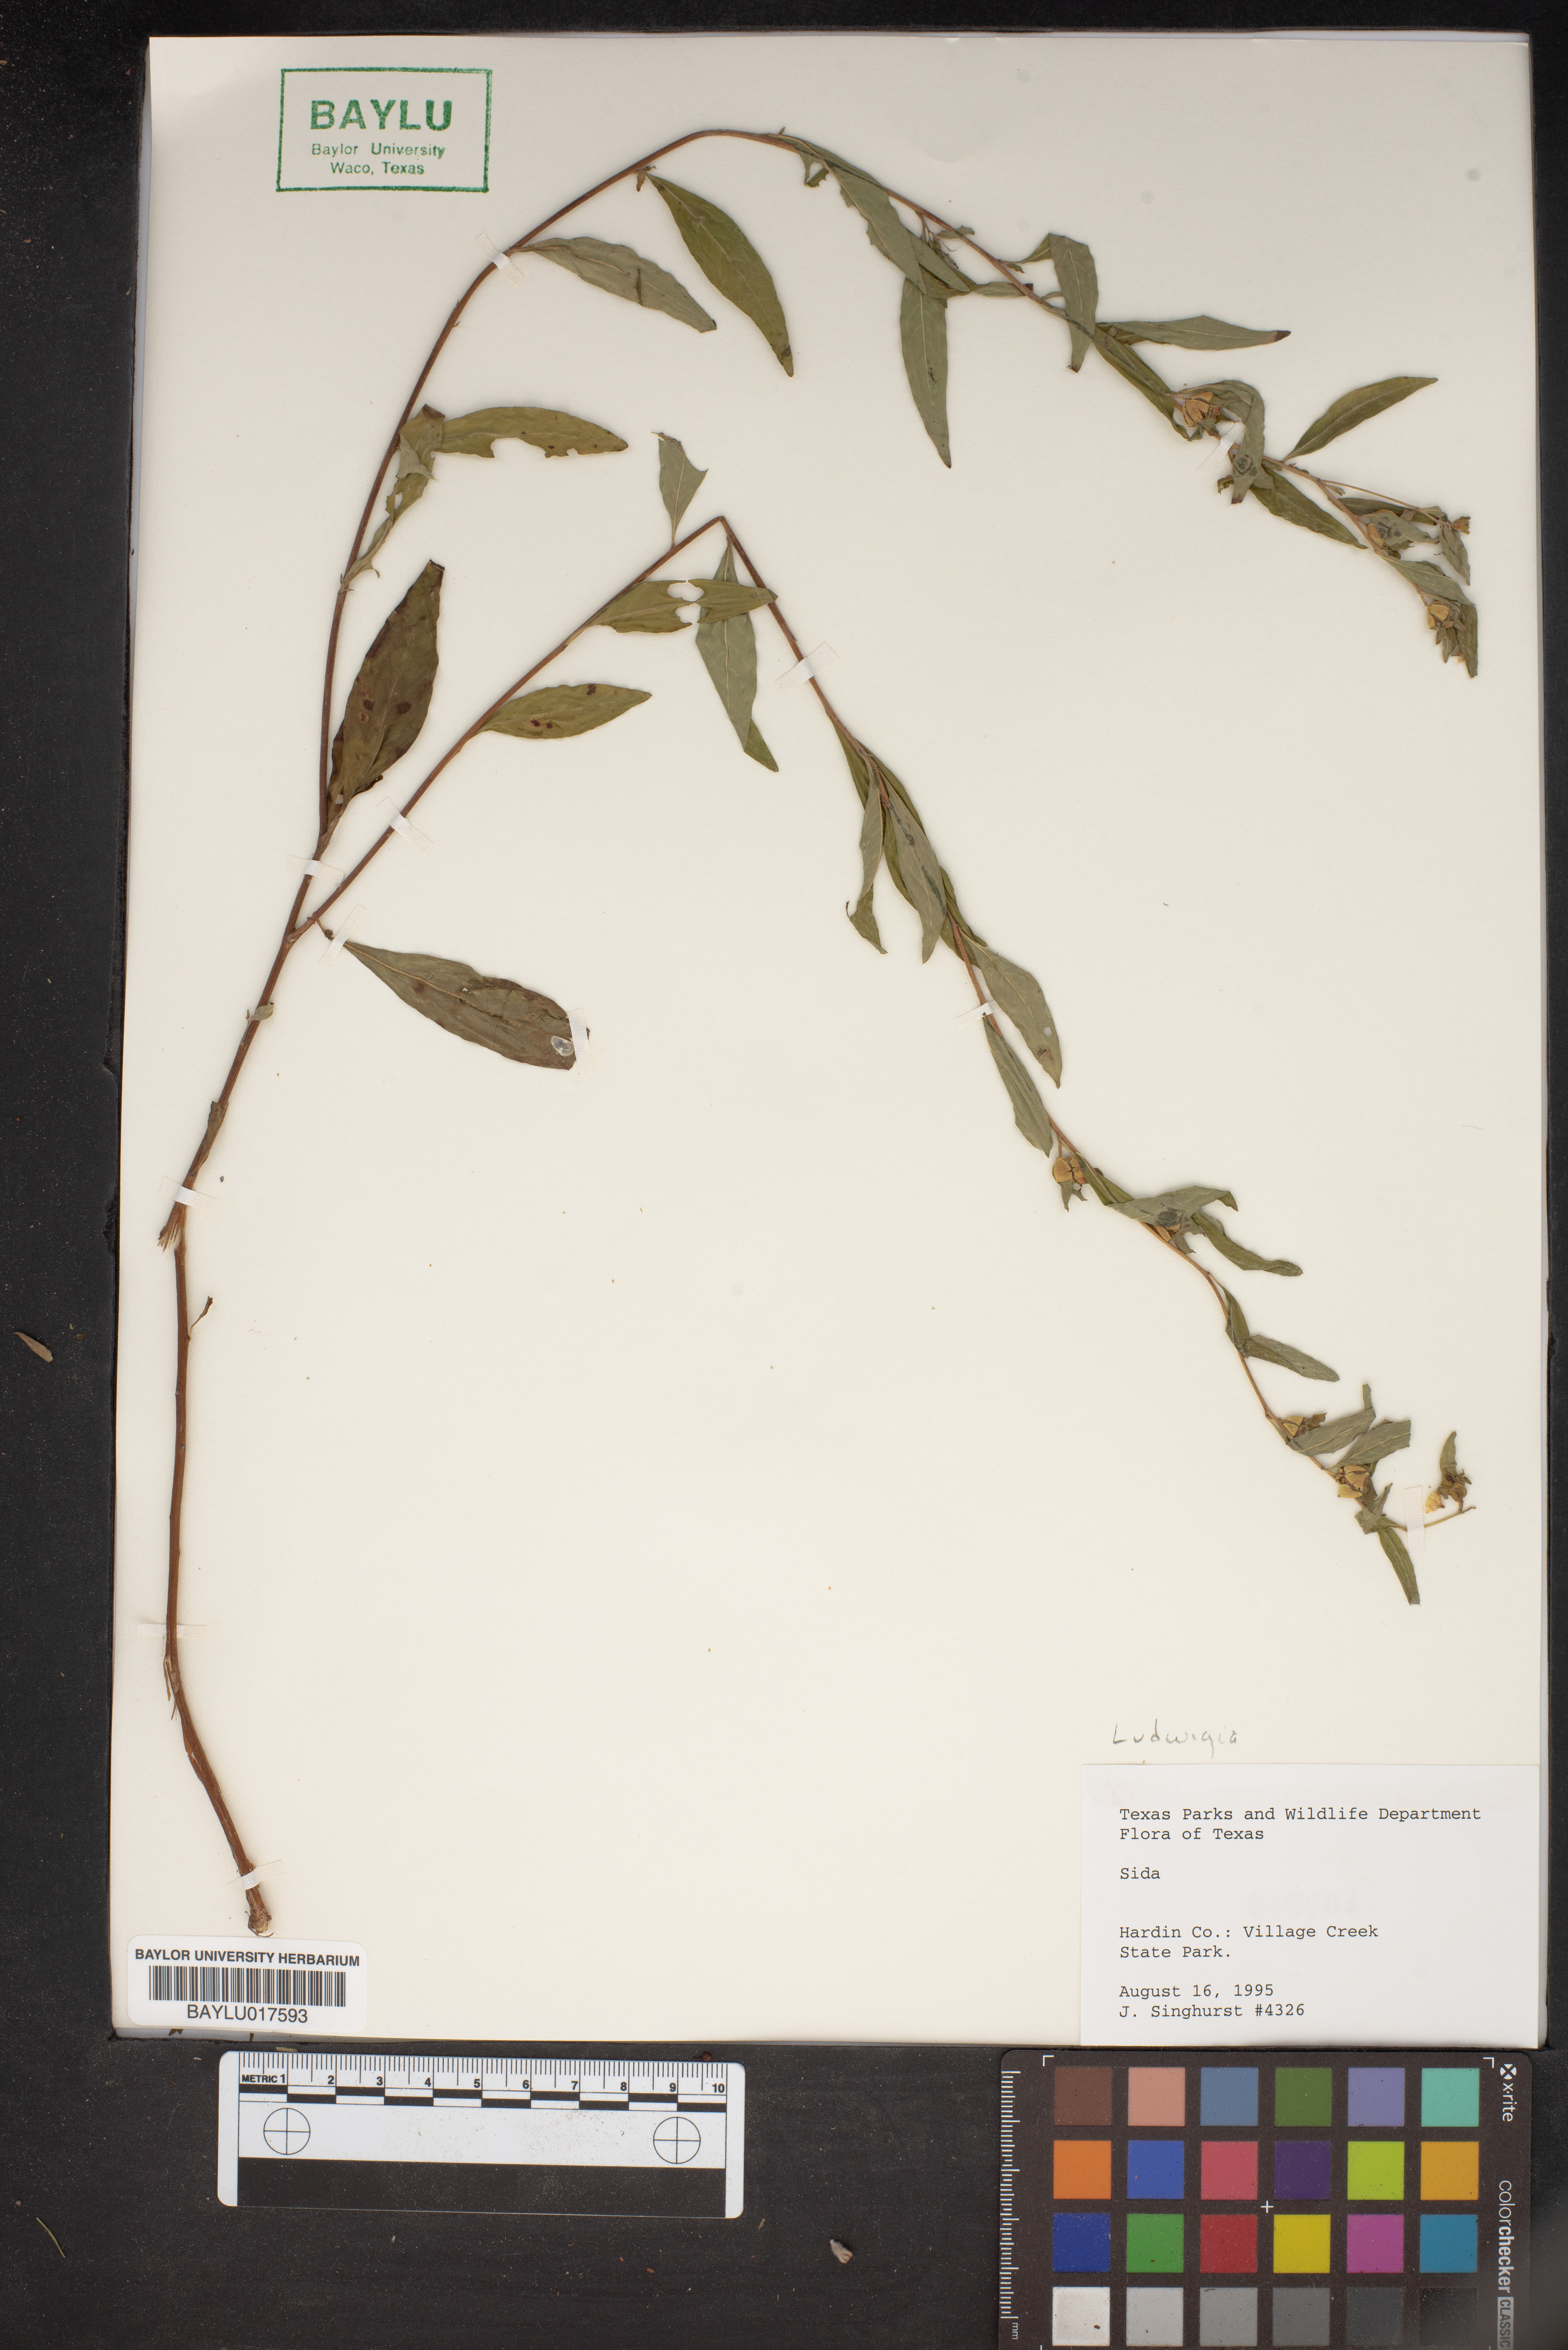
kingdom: Plantae
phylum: Tracheophyta
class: Magnoliopsida
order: Malvales
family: Malvaceae
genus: Sida
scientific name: Sida
